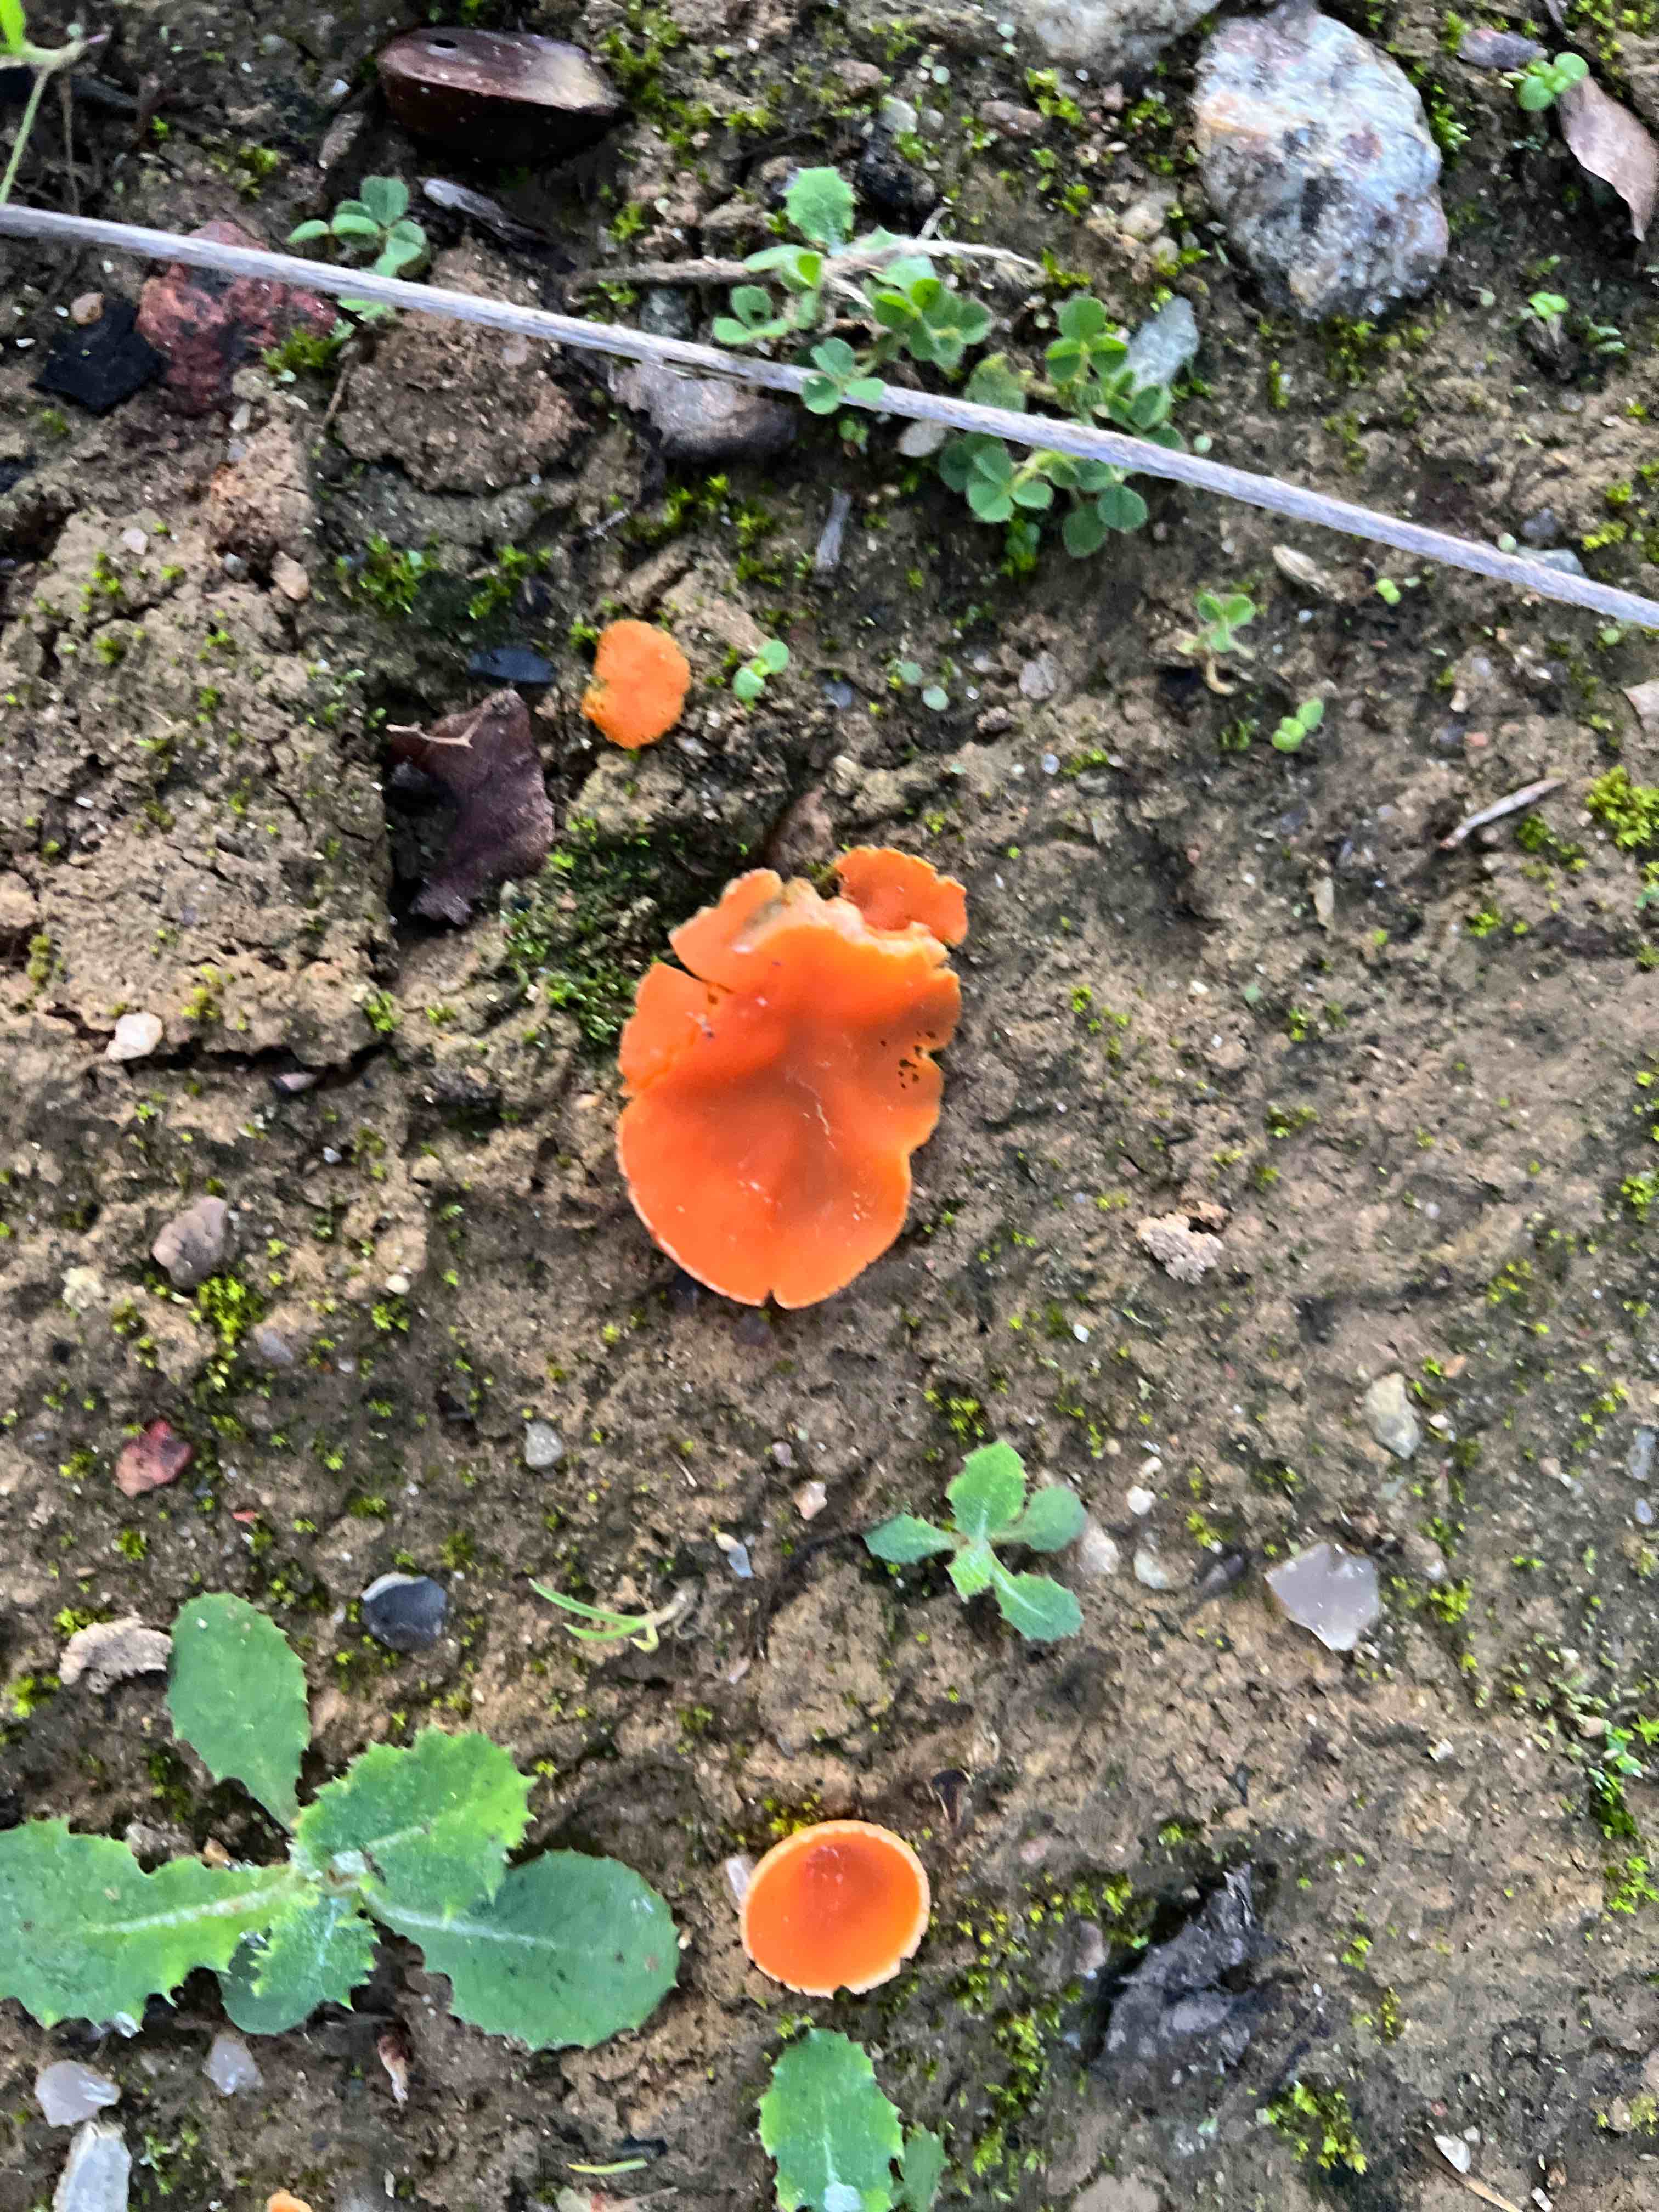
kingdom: Fungi
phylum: Ascomycota
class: Pezizomycetes
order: Pezizales
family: Pyronemataceae
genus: Aleuria
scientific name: Aleuria aurantia
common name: almindelig orangebæger
